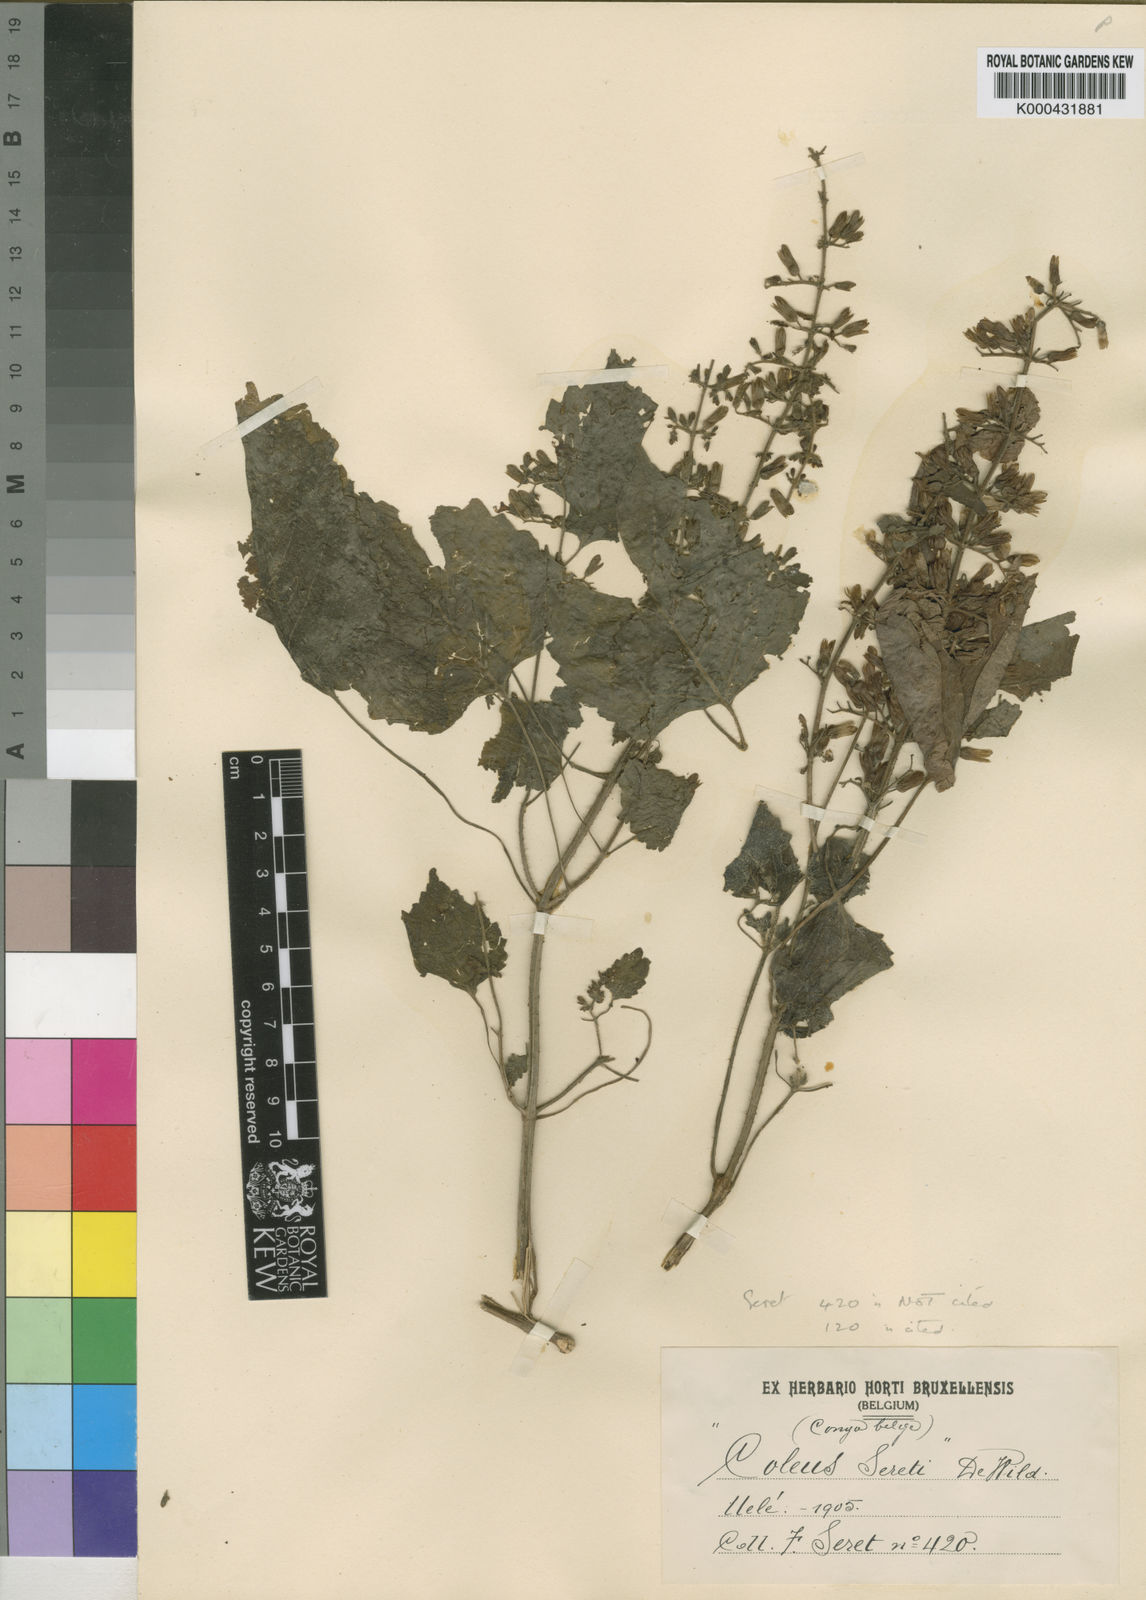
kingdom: Plantae
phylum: Tracheophyta
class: Magnoliopsida
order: Lamiales
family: Lamiaceae
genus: Coleus
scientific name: Coleus seretii
